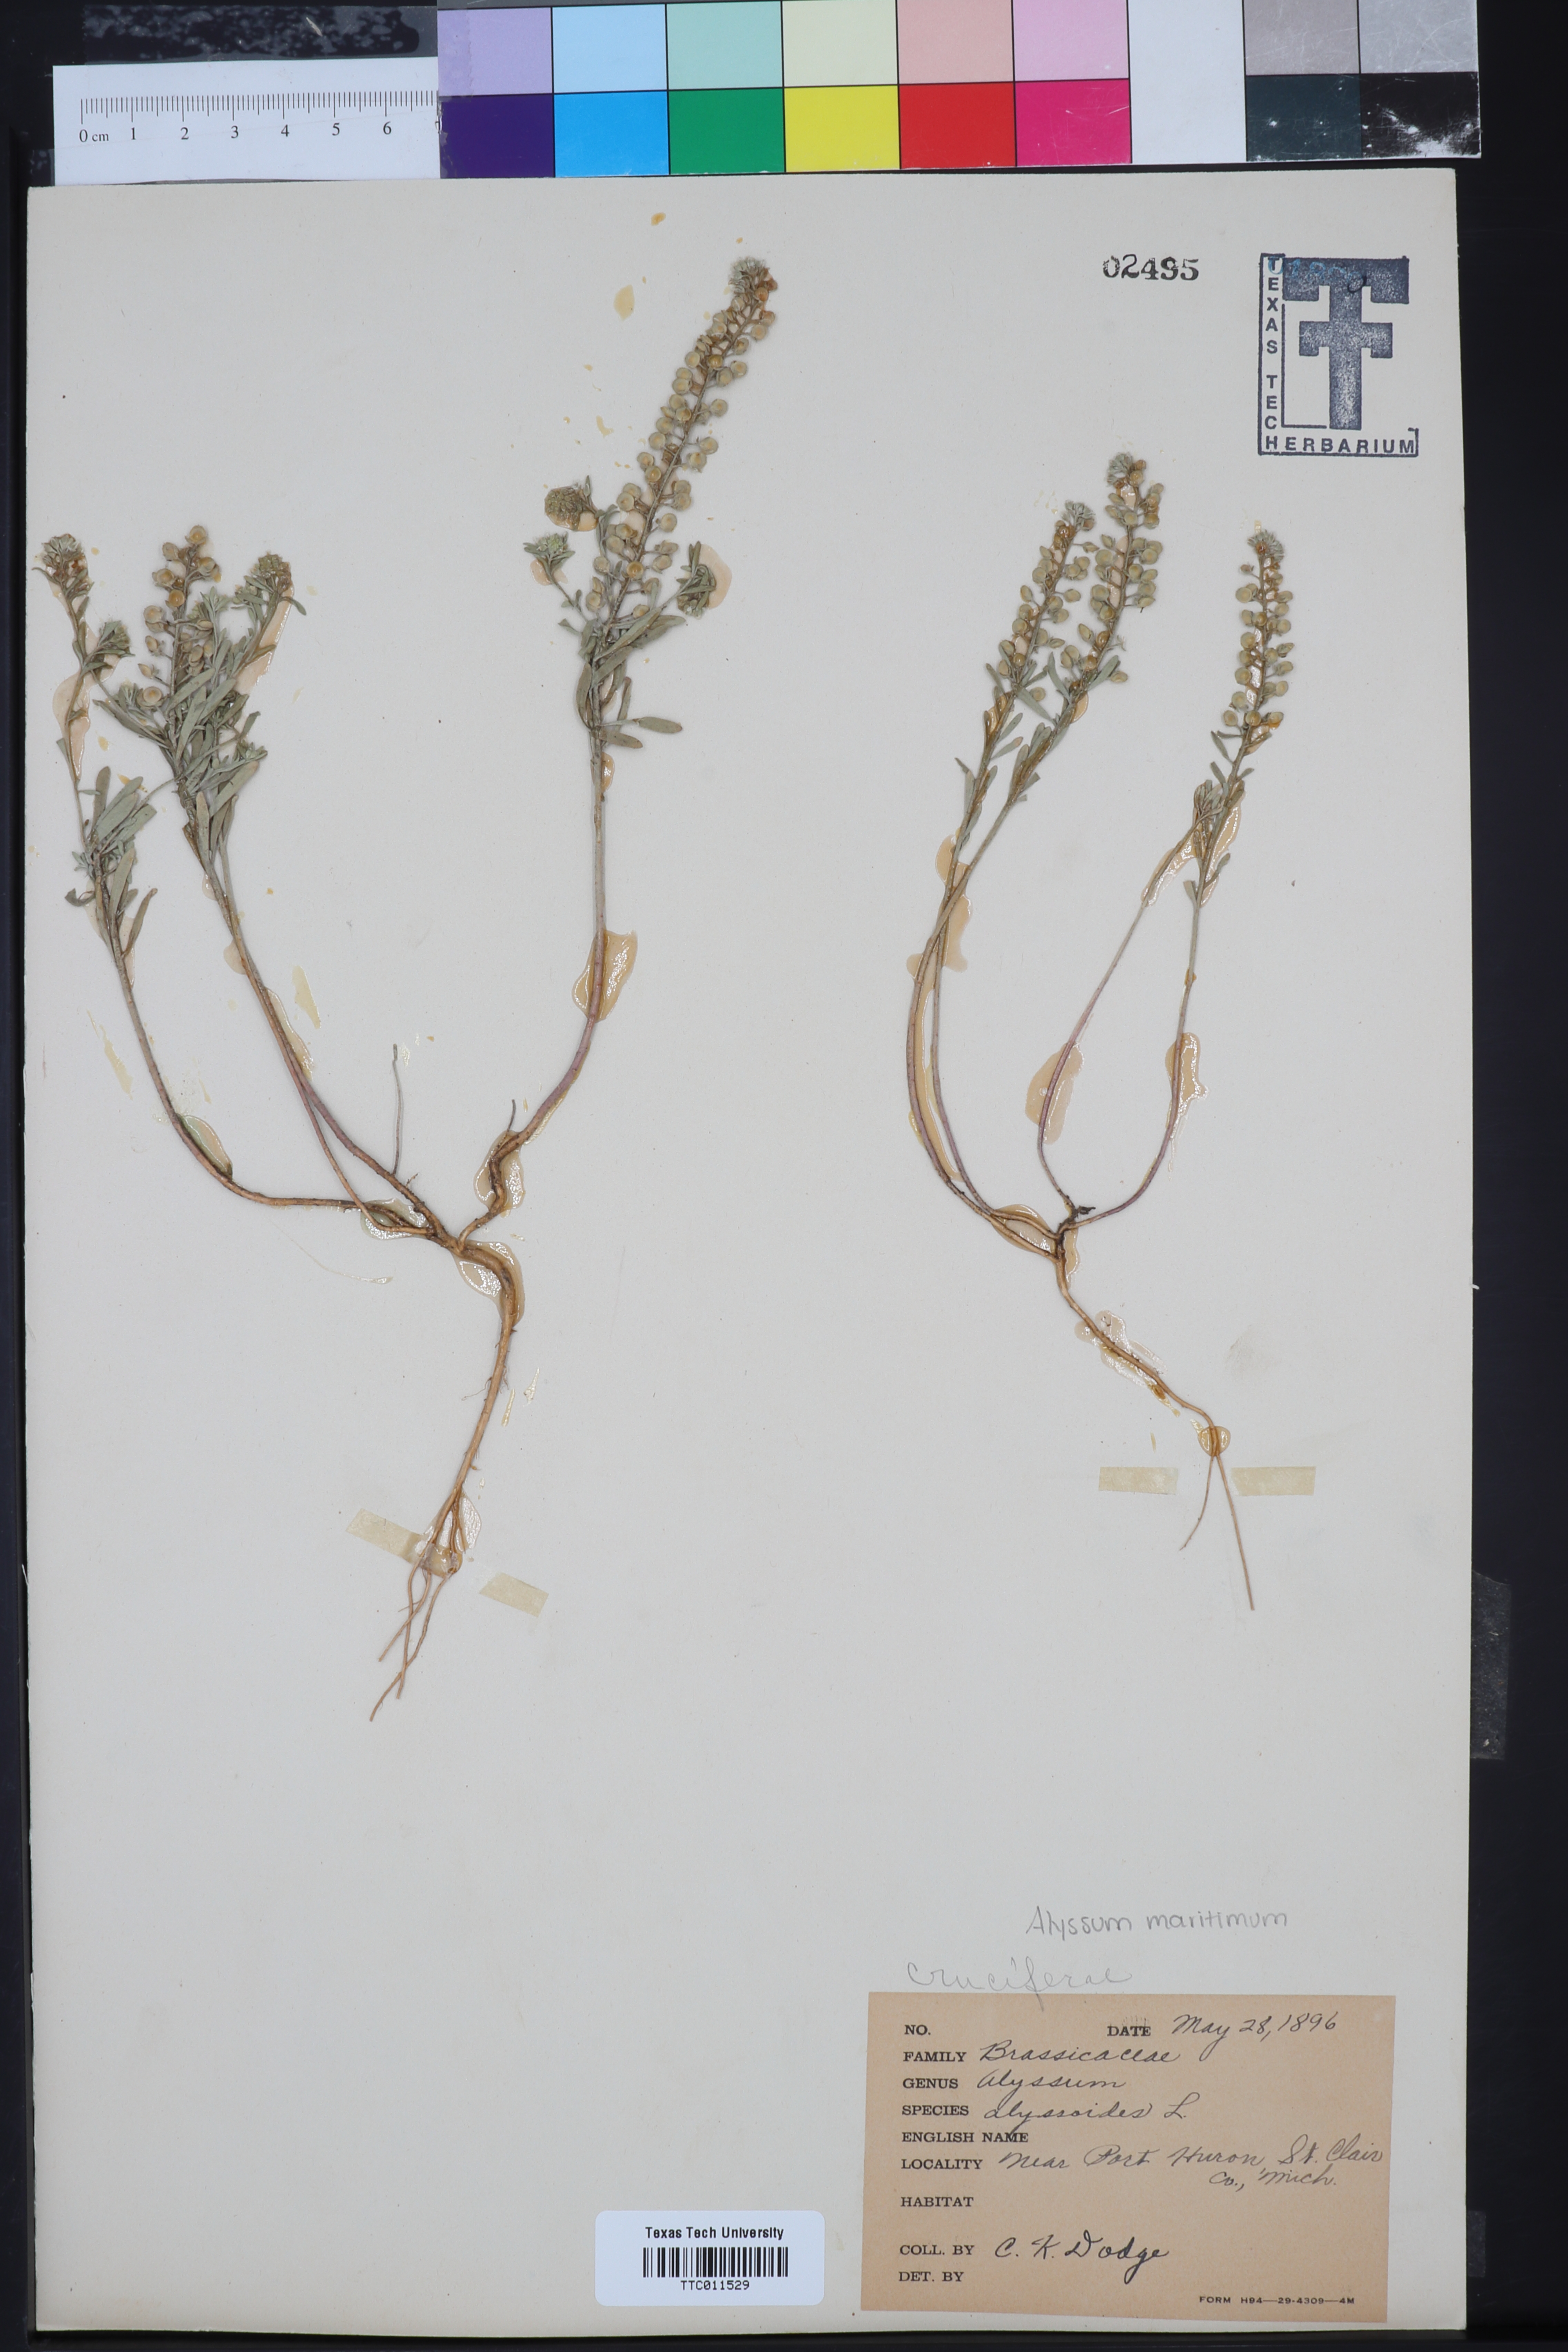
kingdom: Plantae
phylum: Tracheophyta
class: Magnoliopsida
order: Brassicales
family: Brassicaceae
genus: Alyssum
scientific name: Alyssum alyssoides
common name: Small alison
